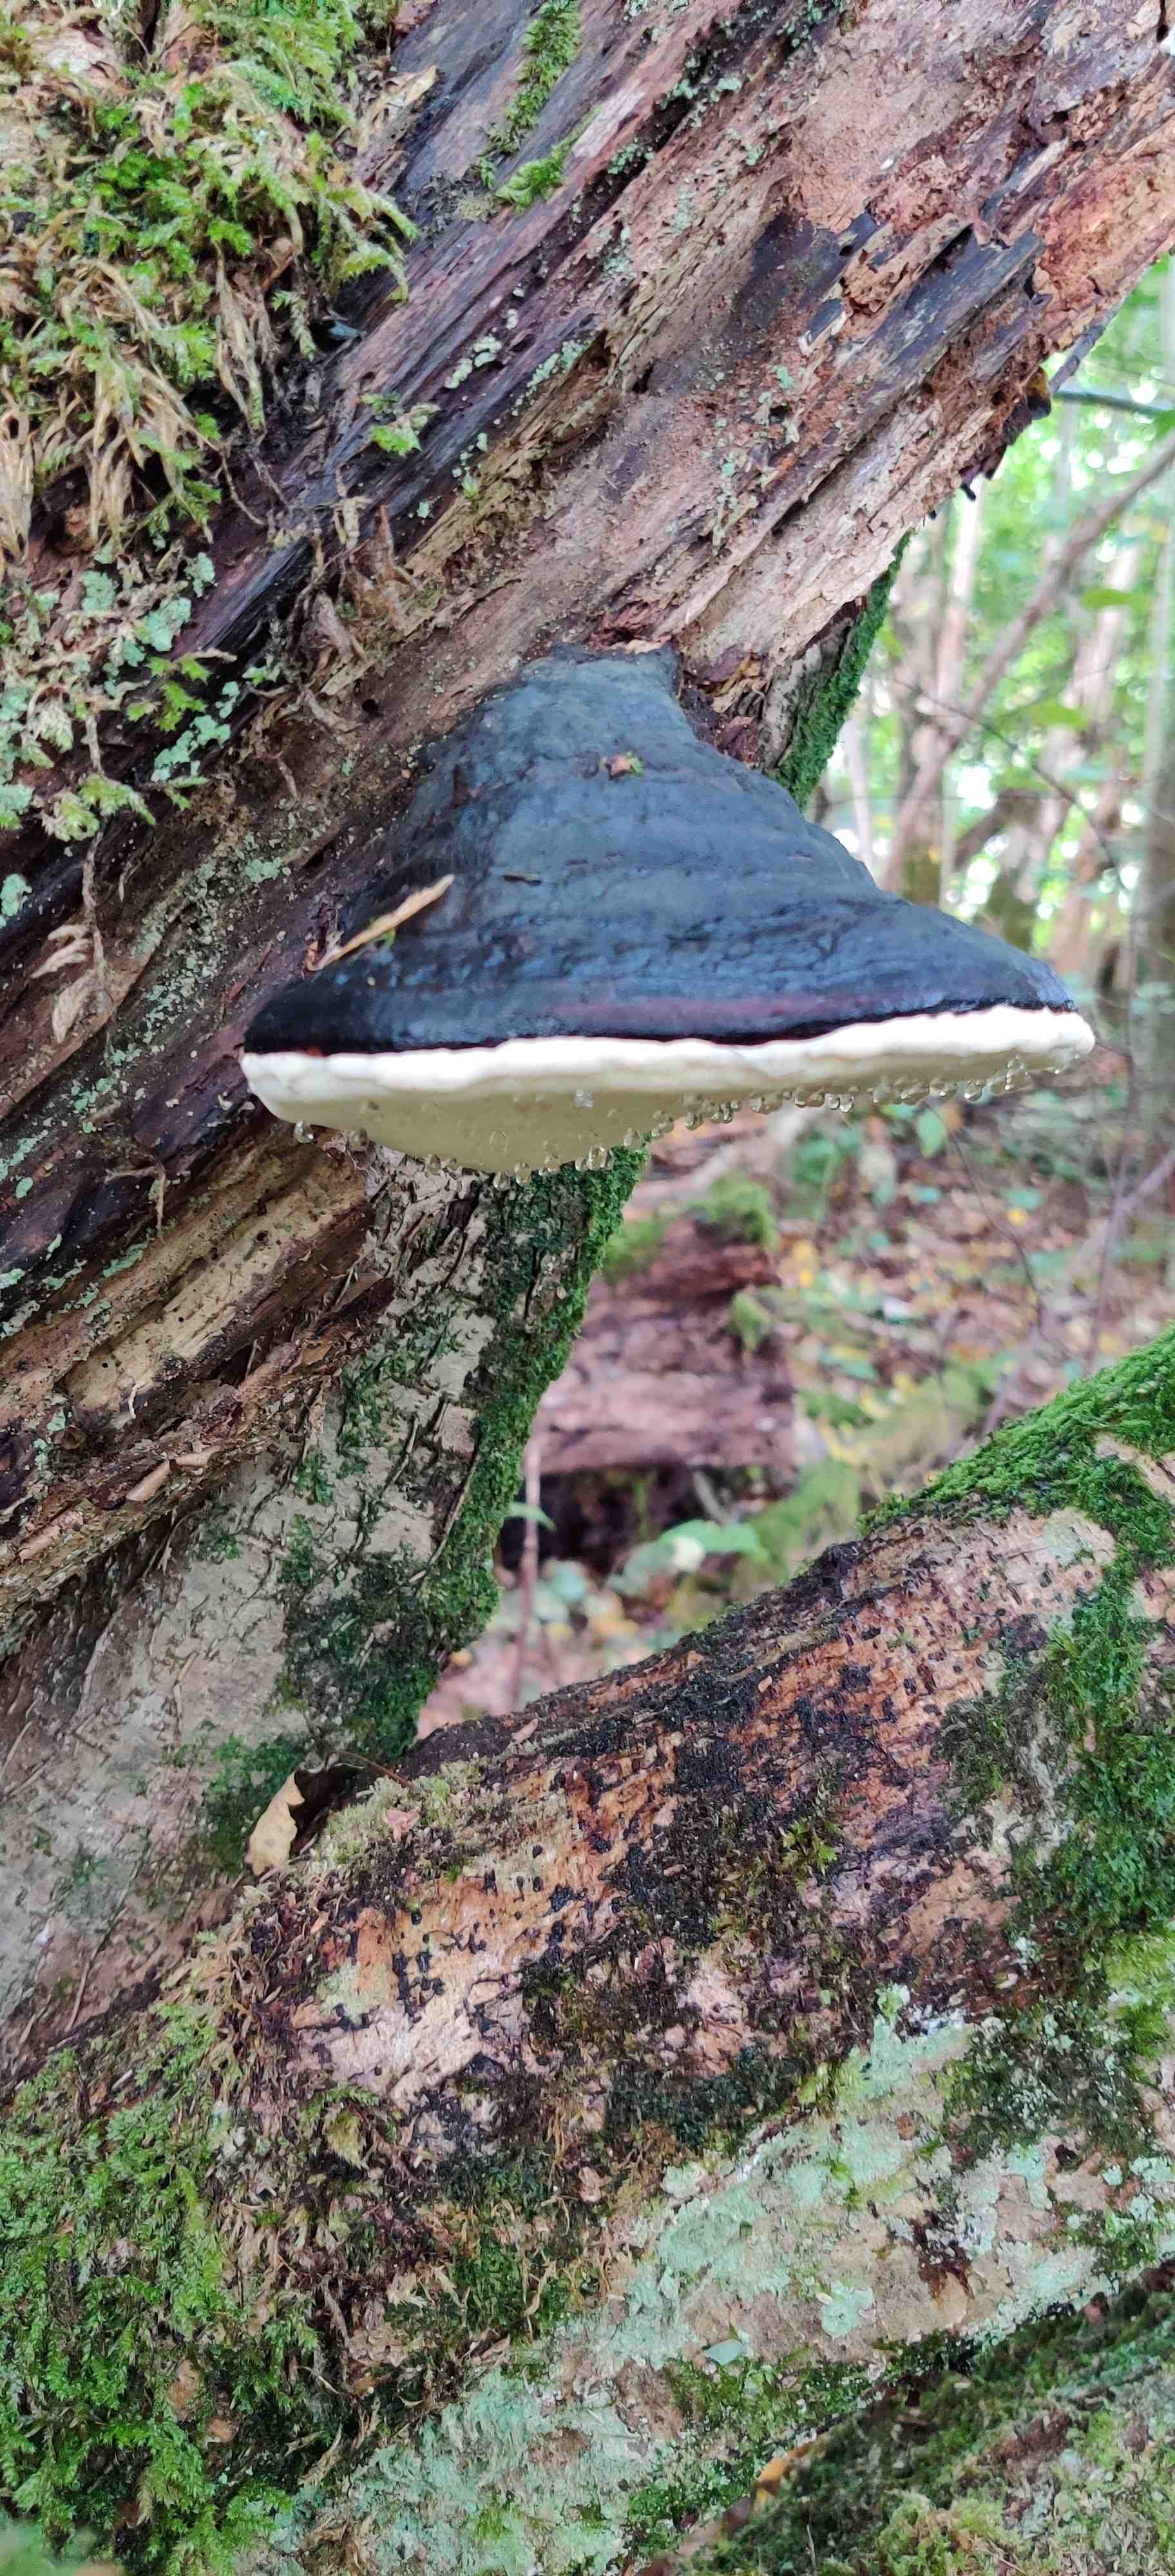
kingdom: Fungi
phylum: Basidiomycota
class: Agaricomycetes
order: Polyporales
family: Fomitopsidaceae
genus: Fomitopsis
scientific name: Fomitopsis pinicola
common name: randbæltet hovporesvamp
